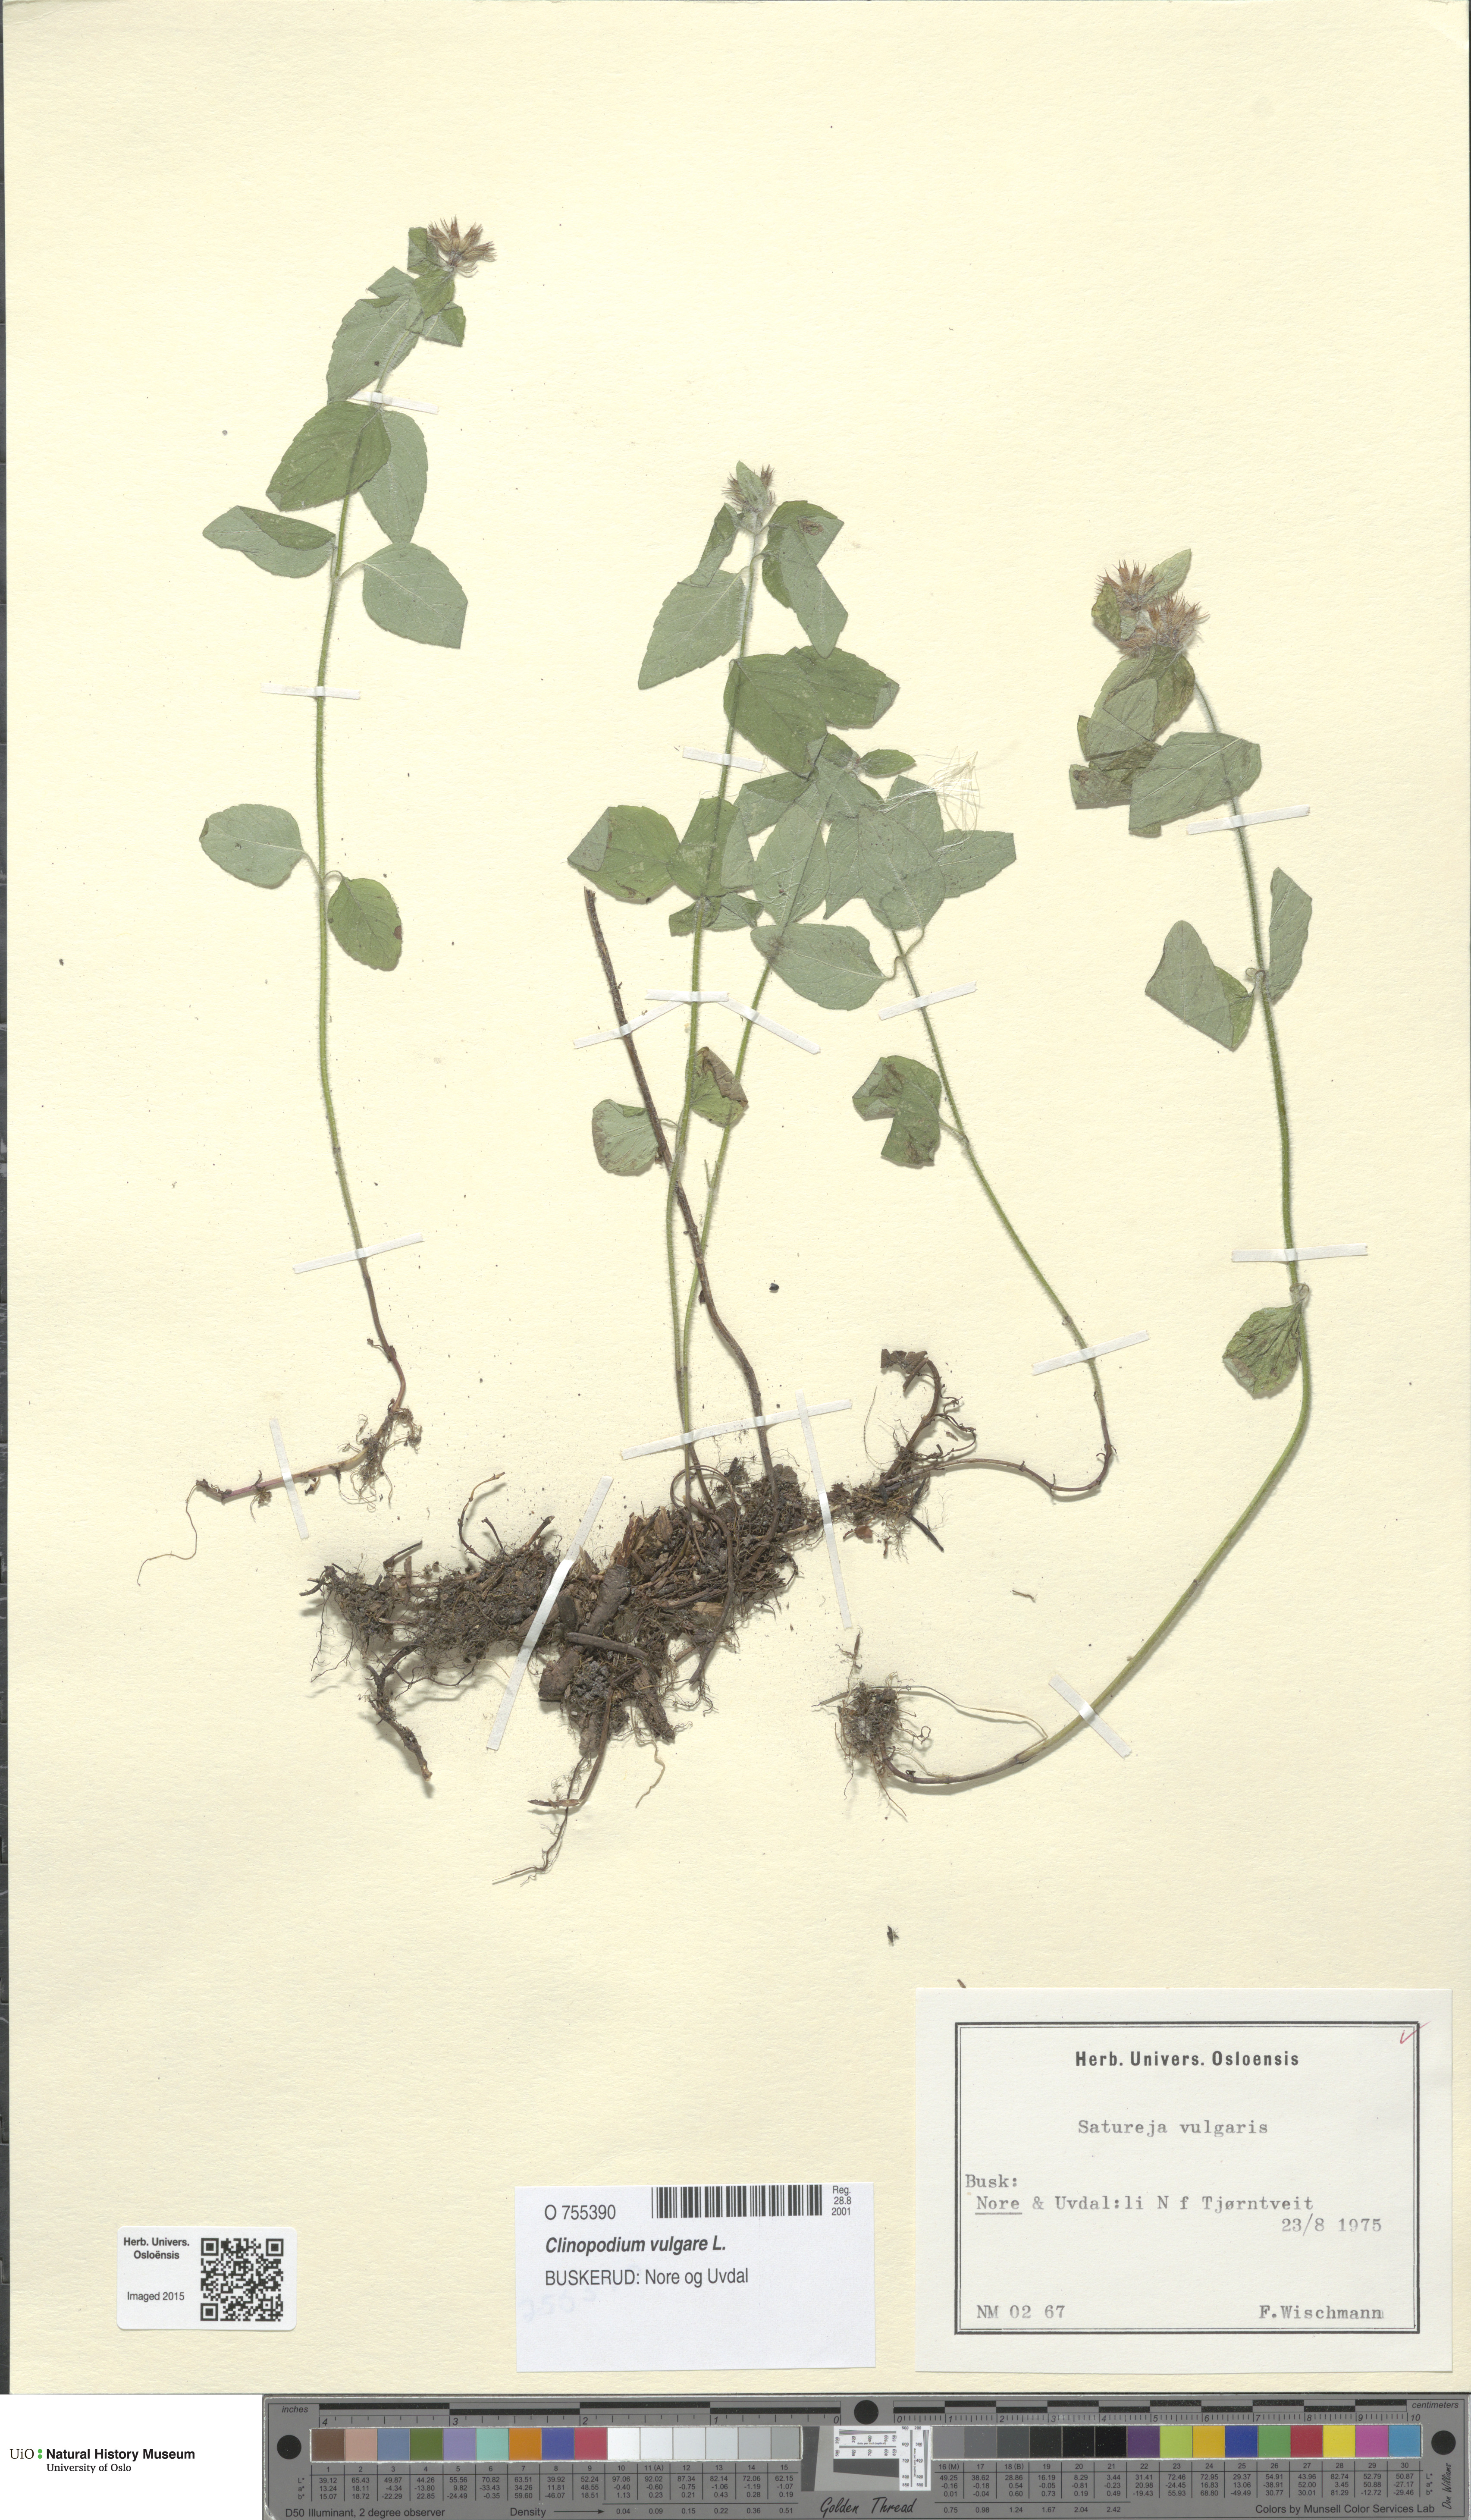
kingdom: Plantae
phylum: Tracheophyta
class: Magnoliopsida
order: Lamiales
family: Lamiaceae
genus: Clinopodium
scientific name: Clinopodium vulgare
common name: Wild basil
